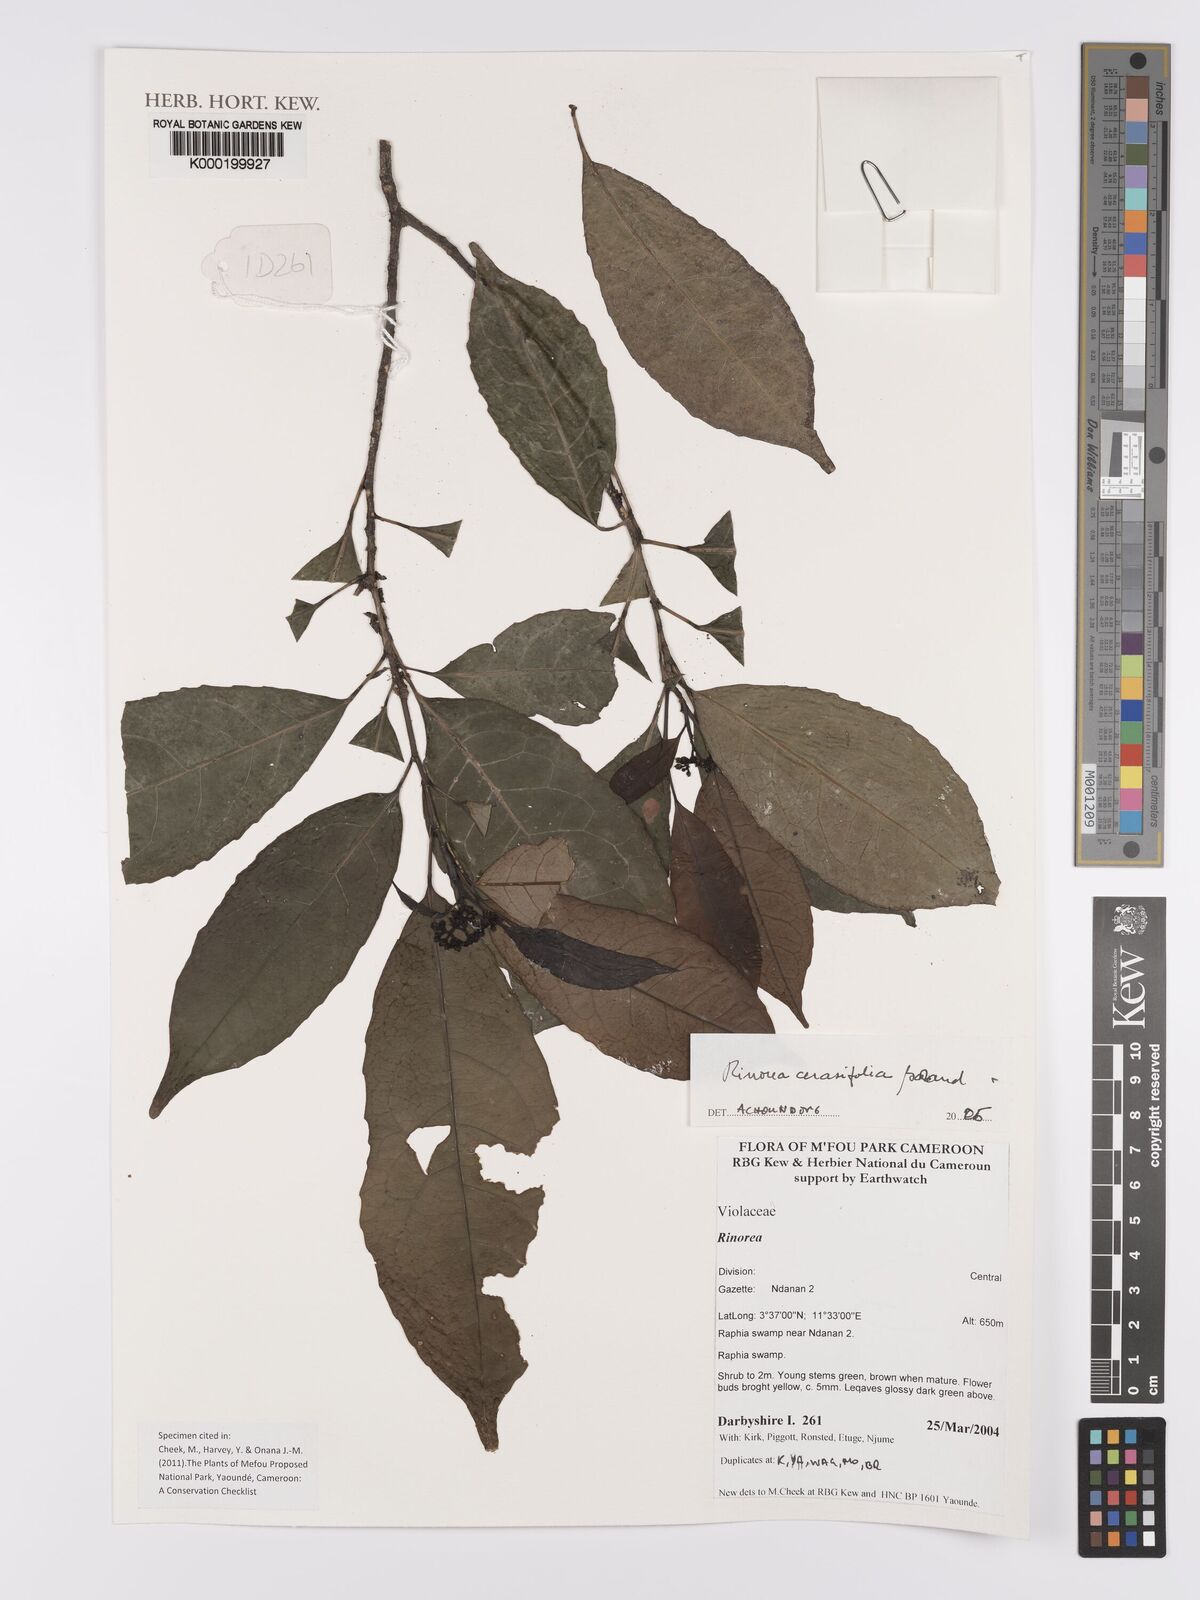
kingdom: Plantae
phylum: Tracheophyta
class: Magnoliopsida
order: Malpighiales
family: Violaceae
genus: Rinorea
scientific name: Rinorea cerasifolia
